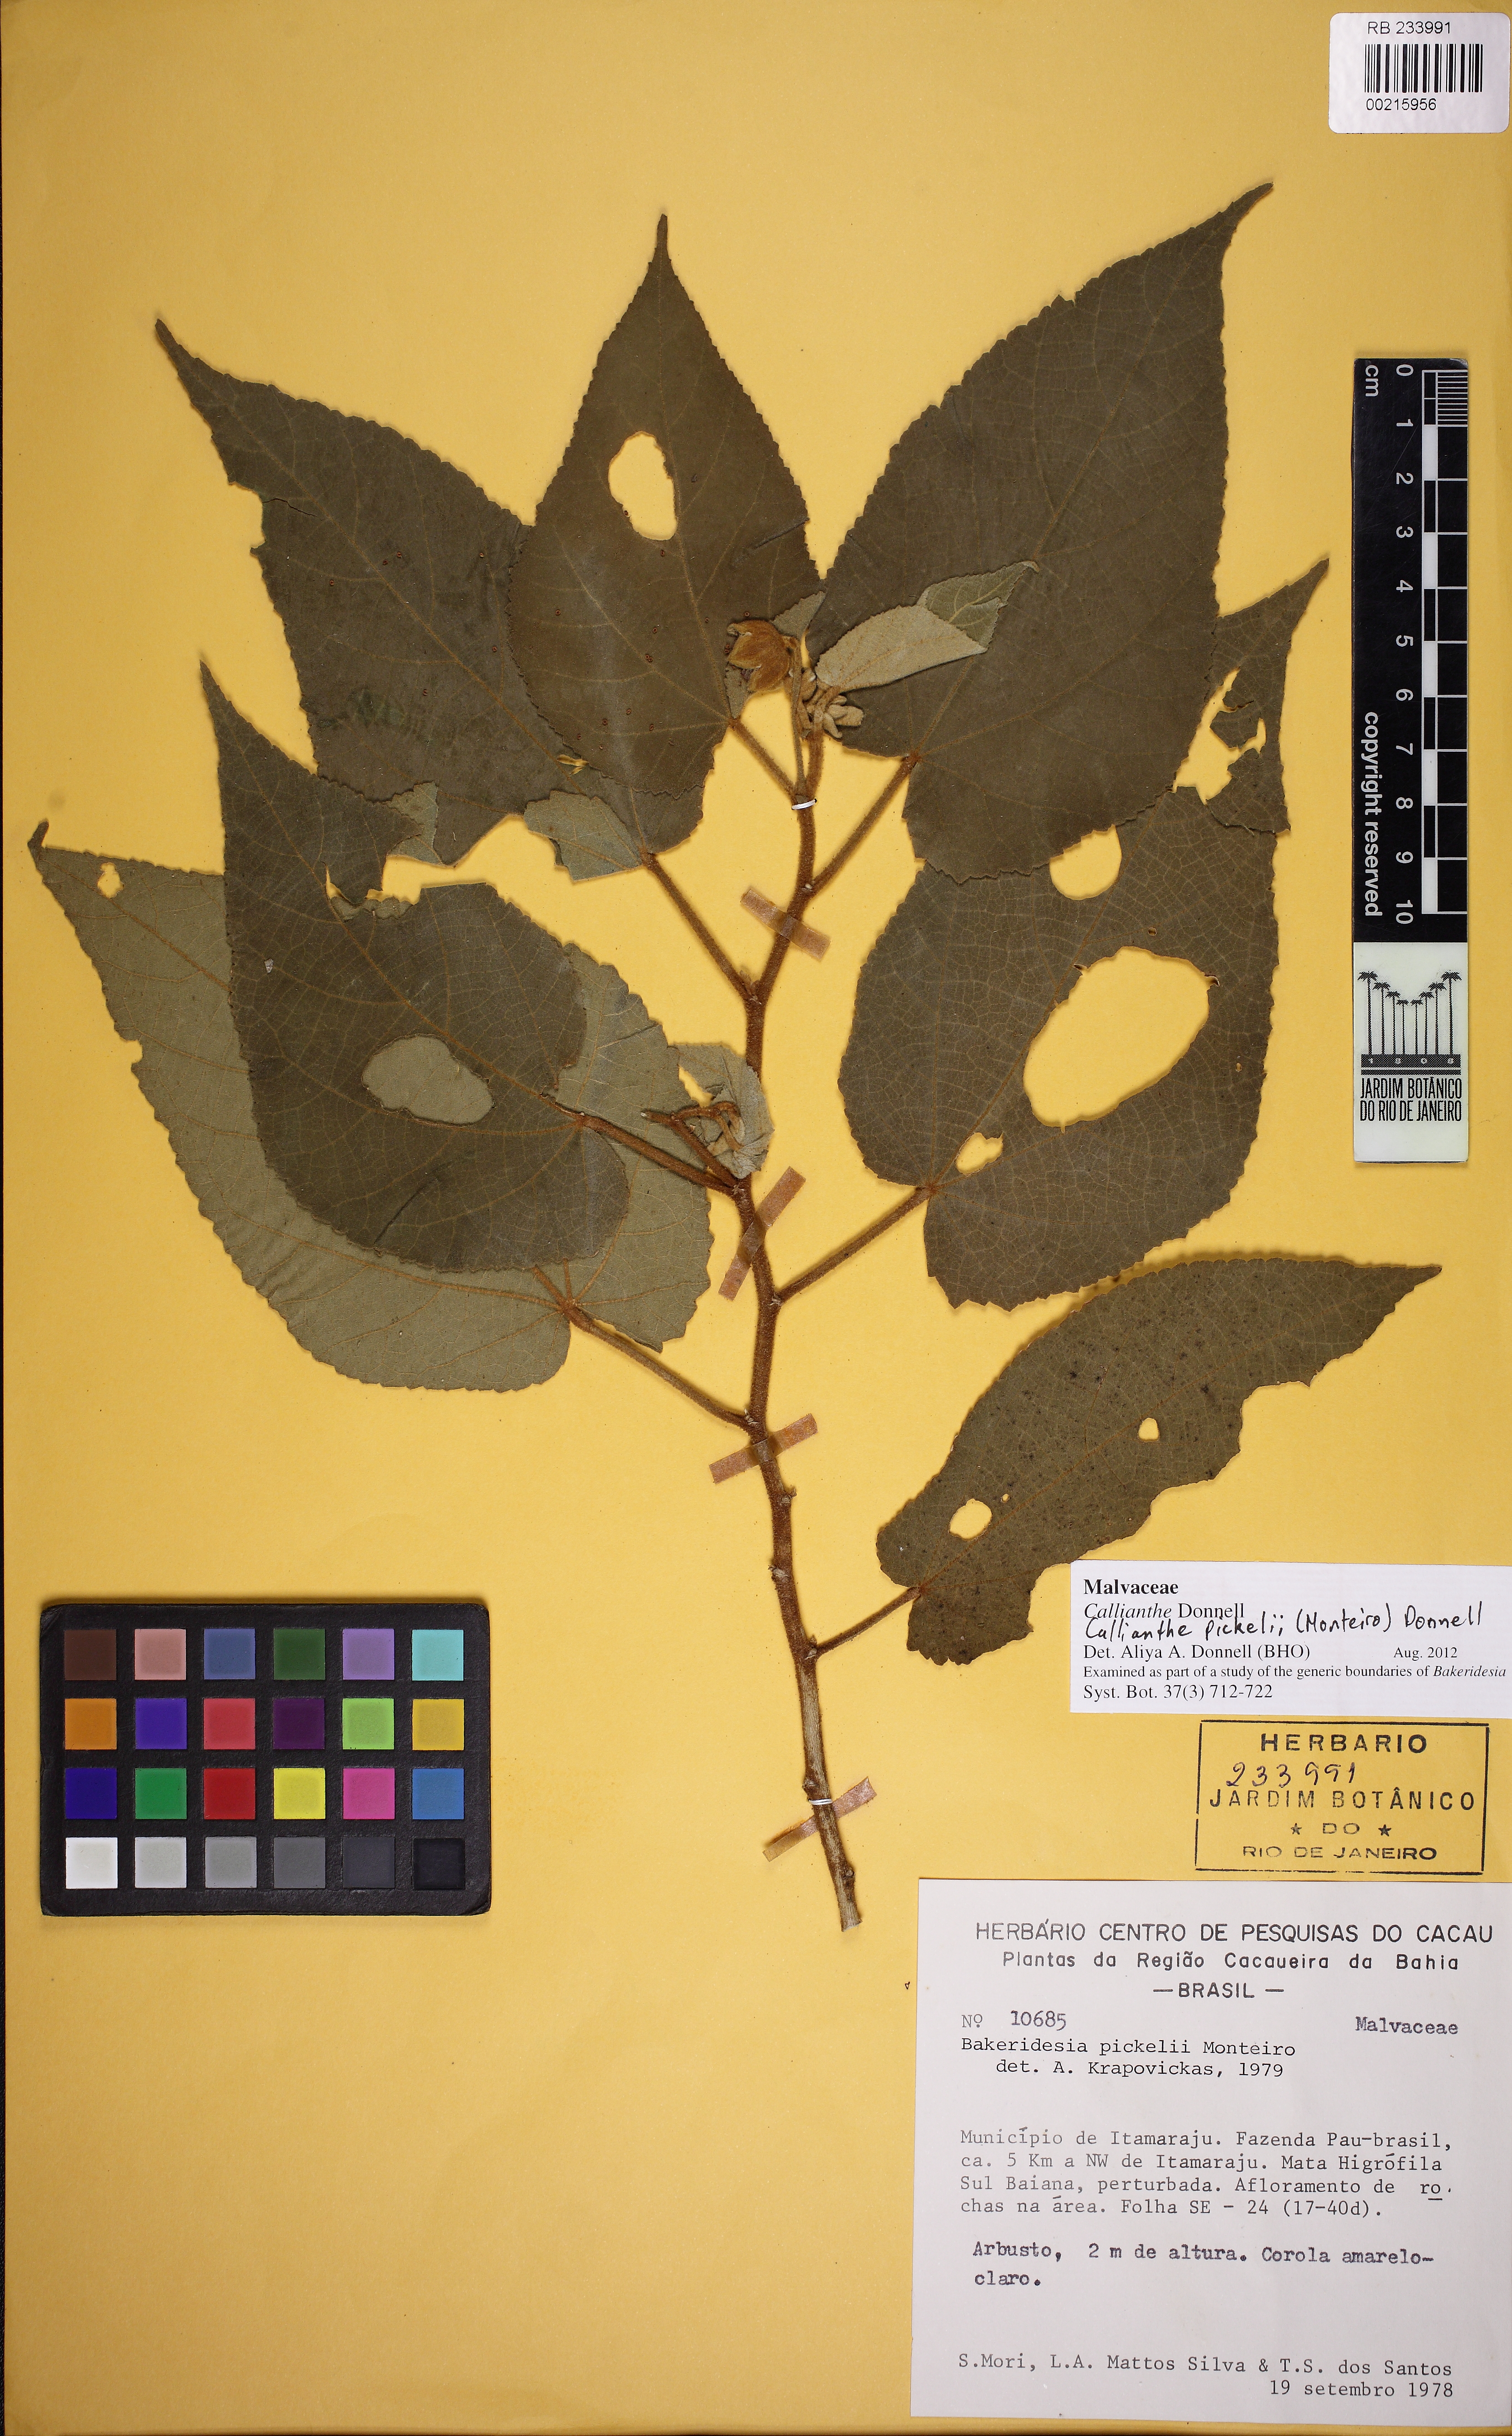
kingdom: Plantae
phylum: Tracheophyta
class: Magnoliopsida
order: Malvales
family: Malvaceae
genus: Callianthe
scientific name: Callianthe pickelii
